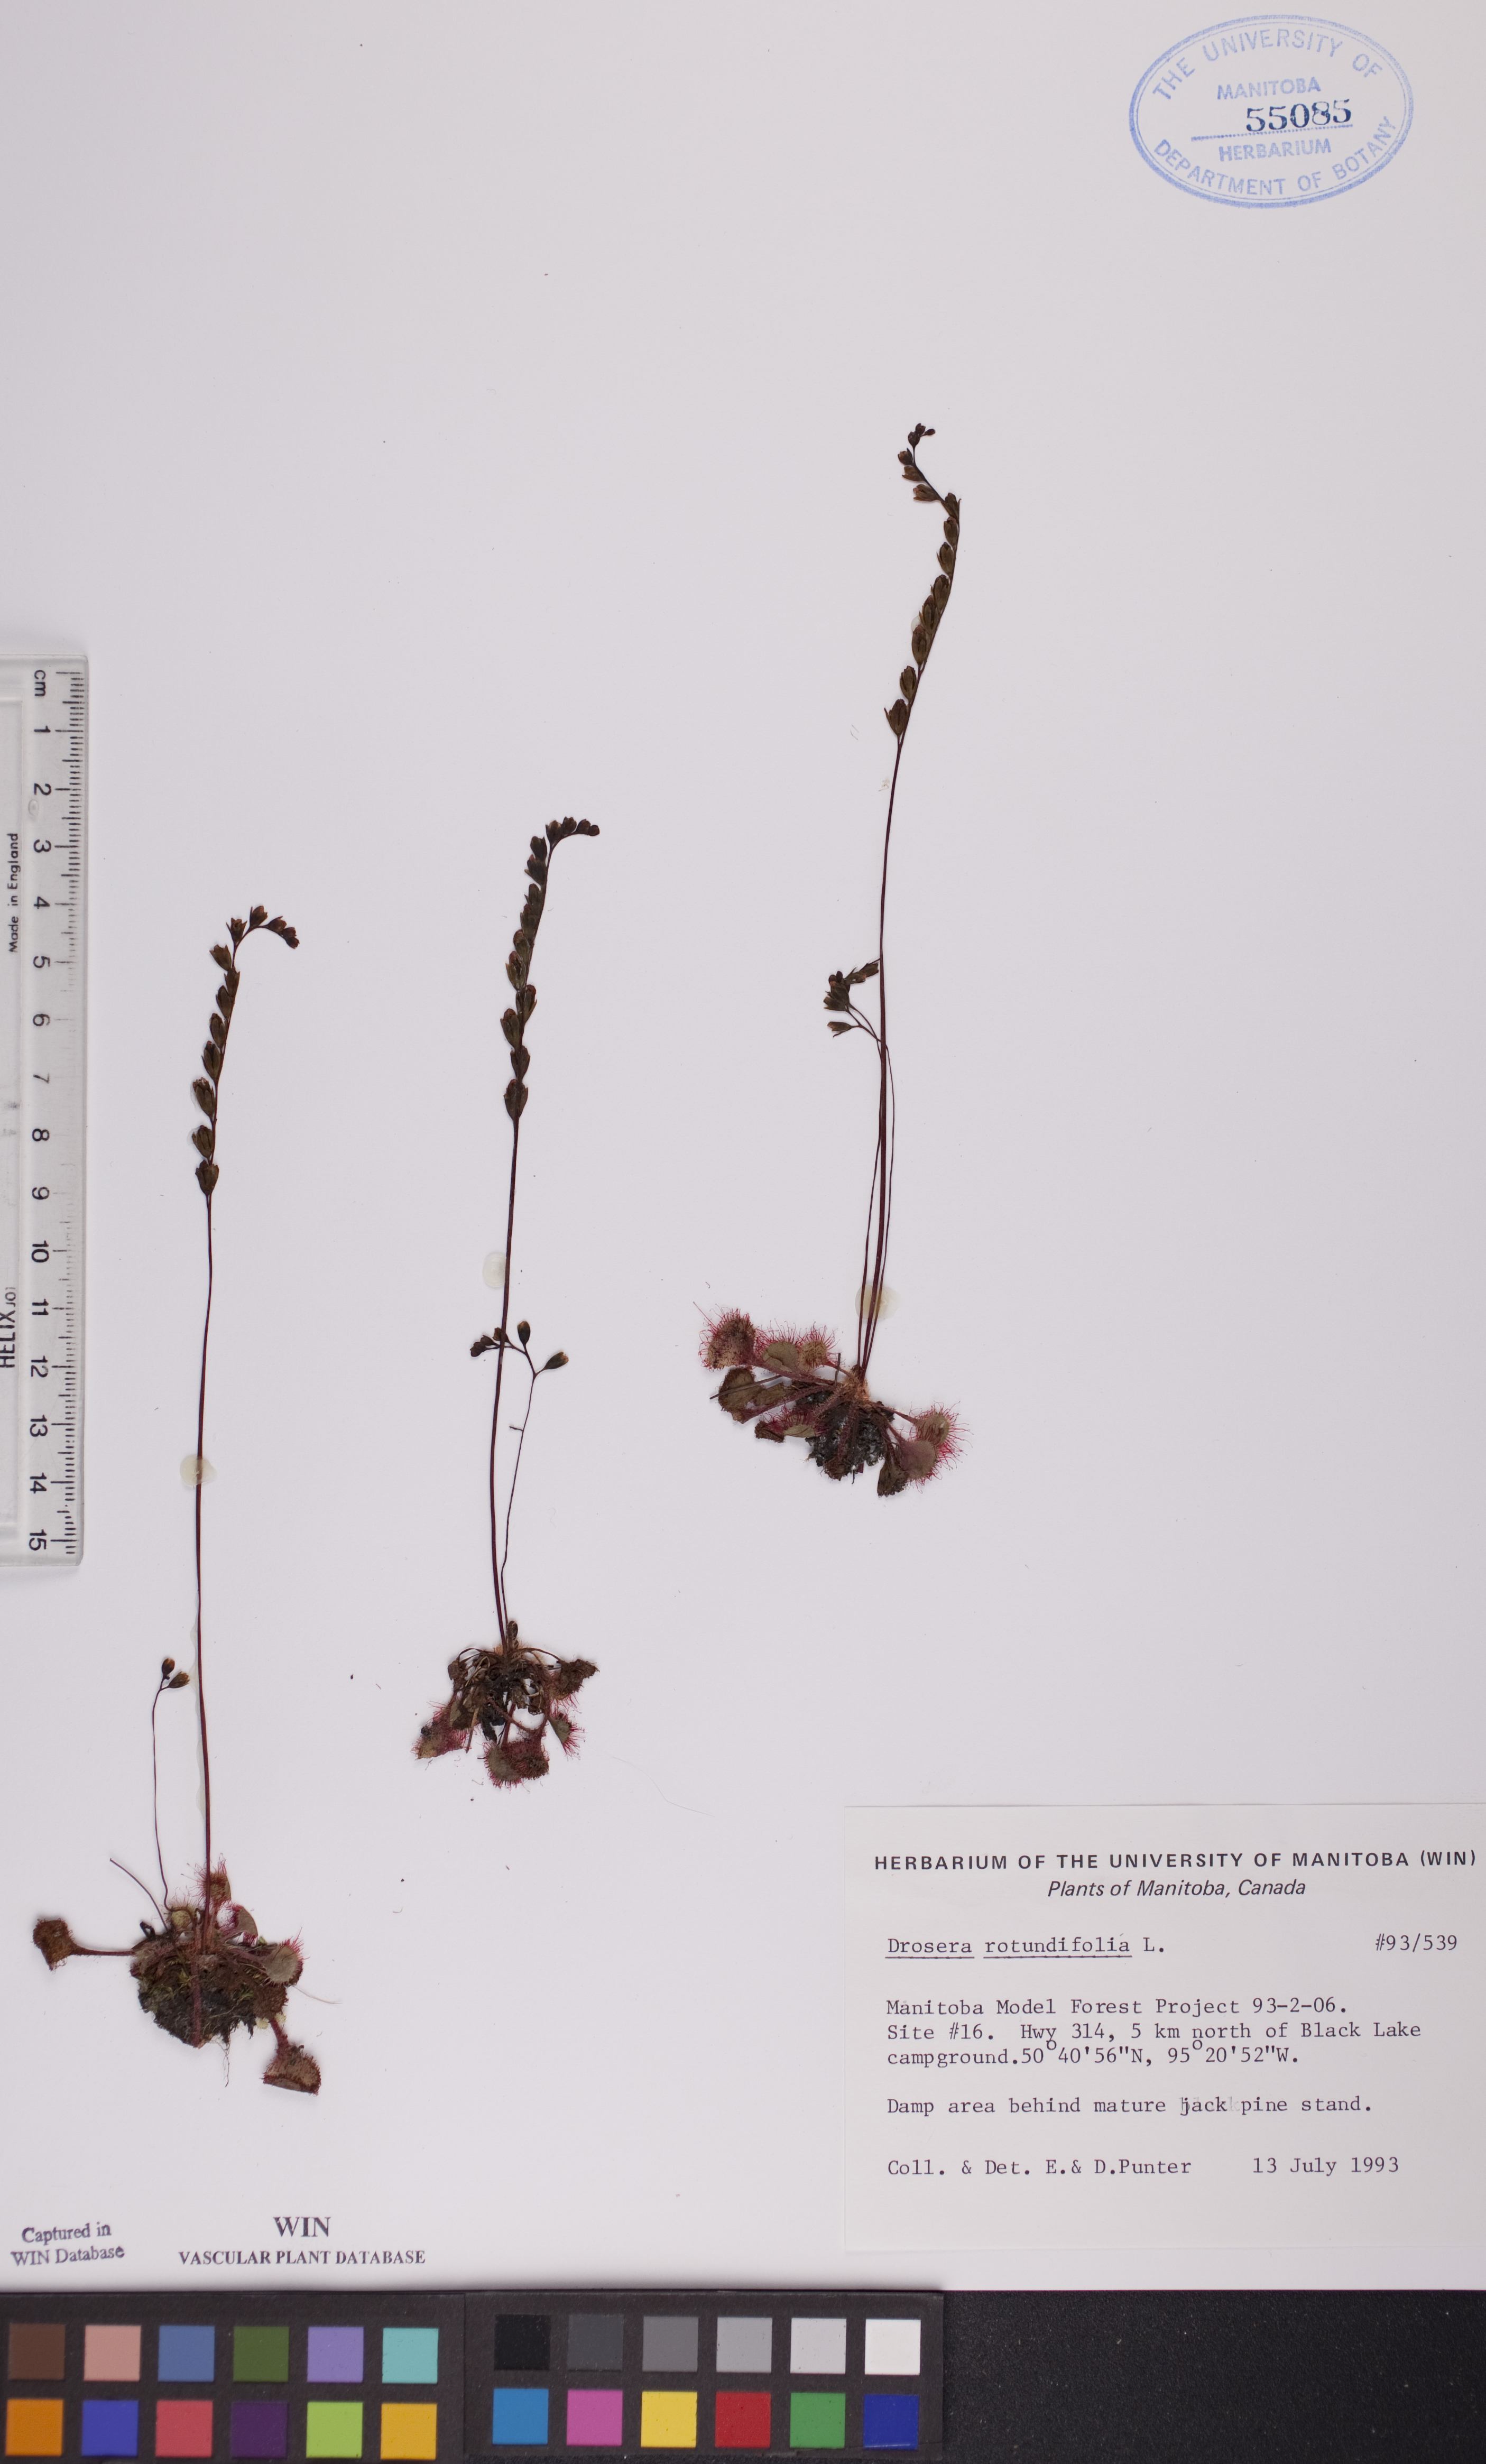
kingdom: Plantae
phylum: Tracheophyta
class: Magnoliopsida
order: Caryophyllales
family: Droseraceae
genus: Drosera
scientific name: Drosera rotundifolia
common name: Round-leaved sundew
